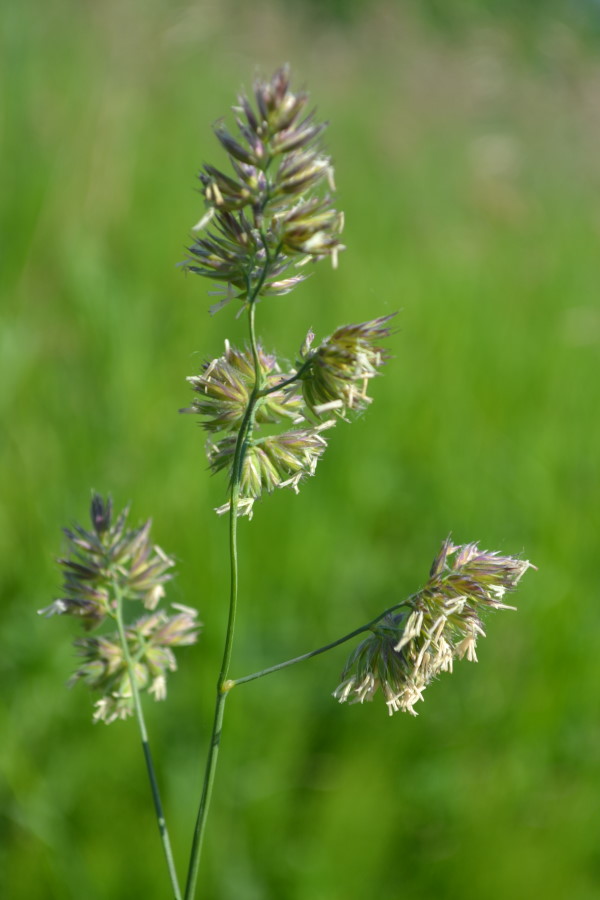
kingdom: Plantae
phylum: Tracheophyta
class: Liliopsida
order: Poales
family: Poaceae
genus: Dactylis
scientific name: Dactylis glomerata
